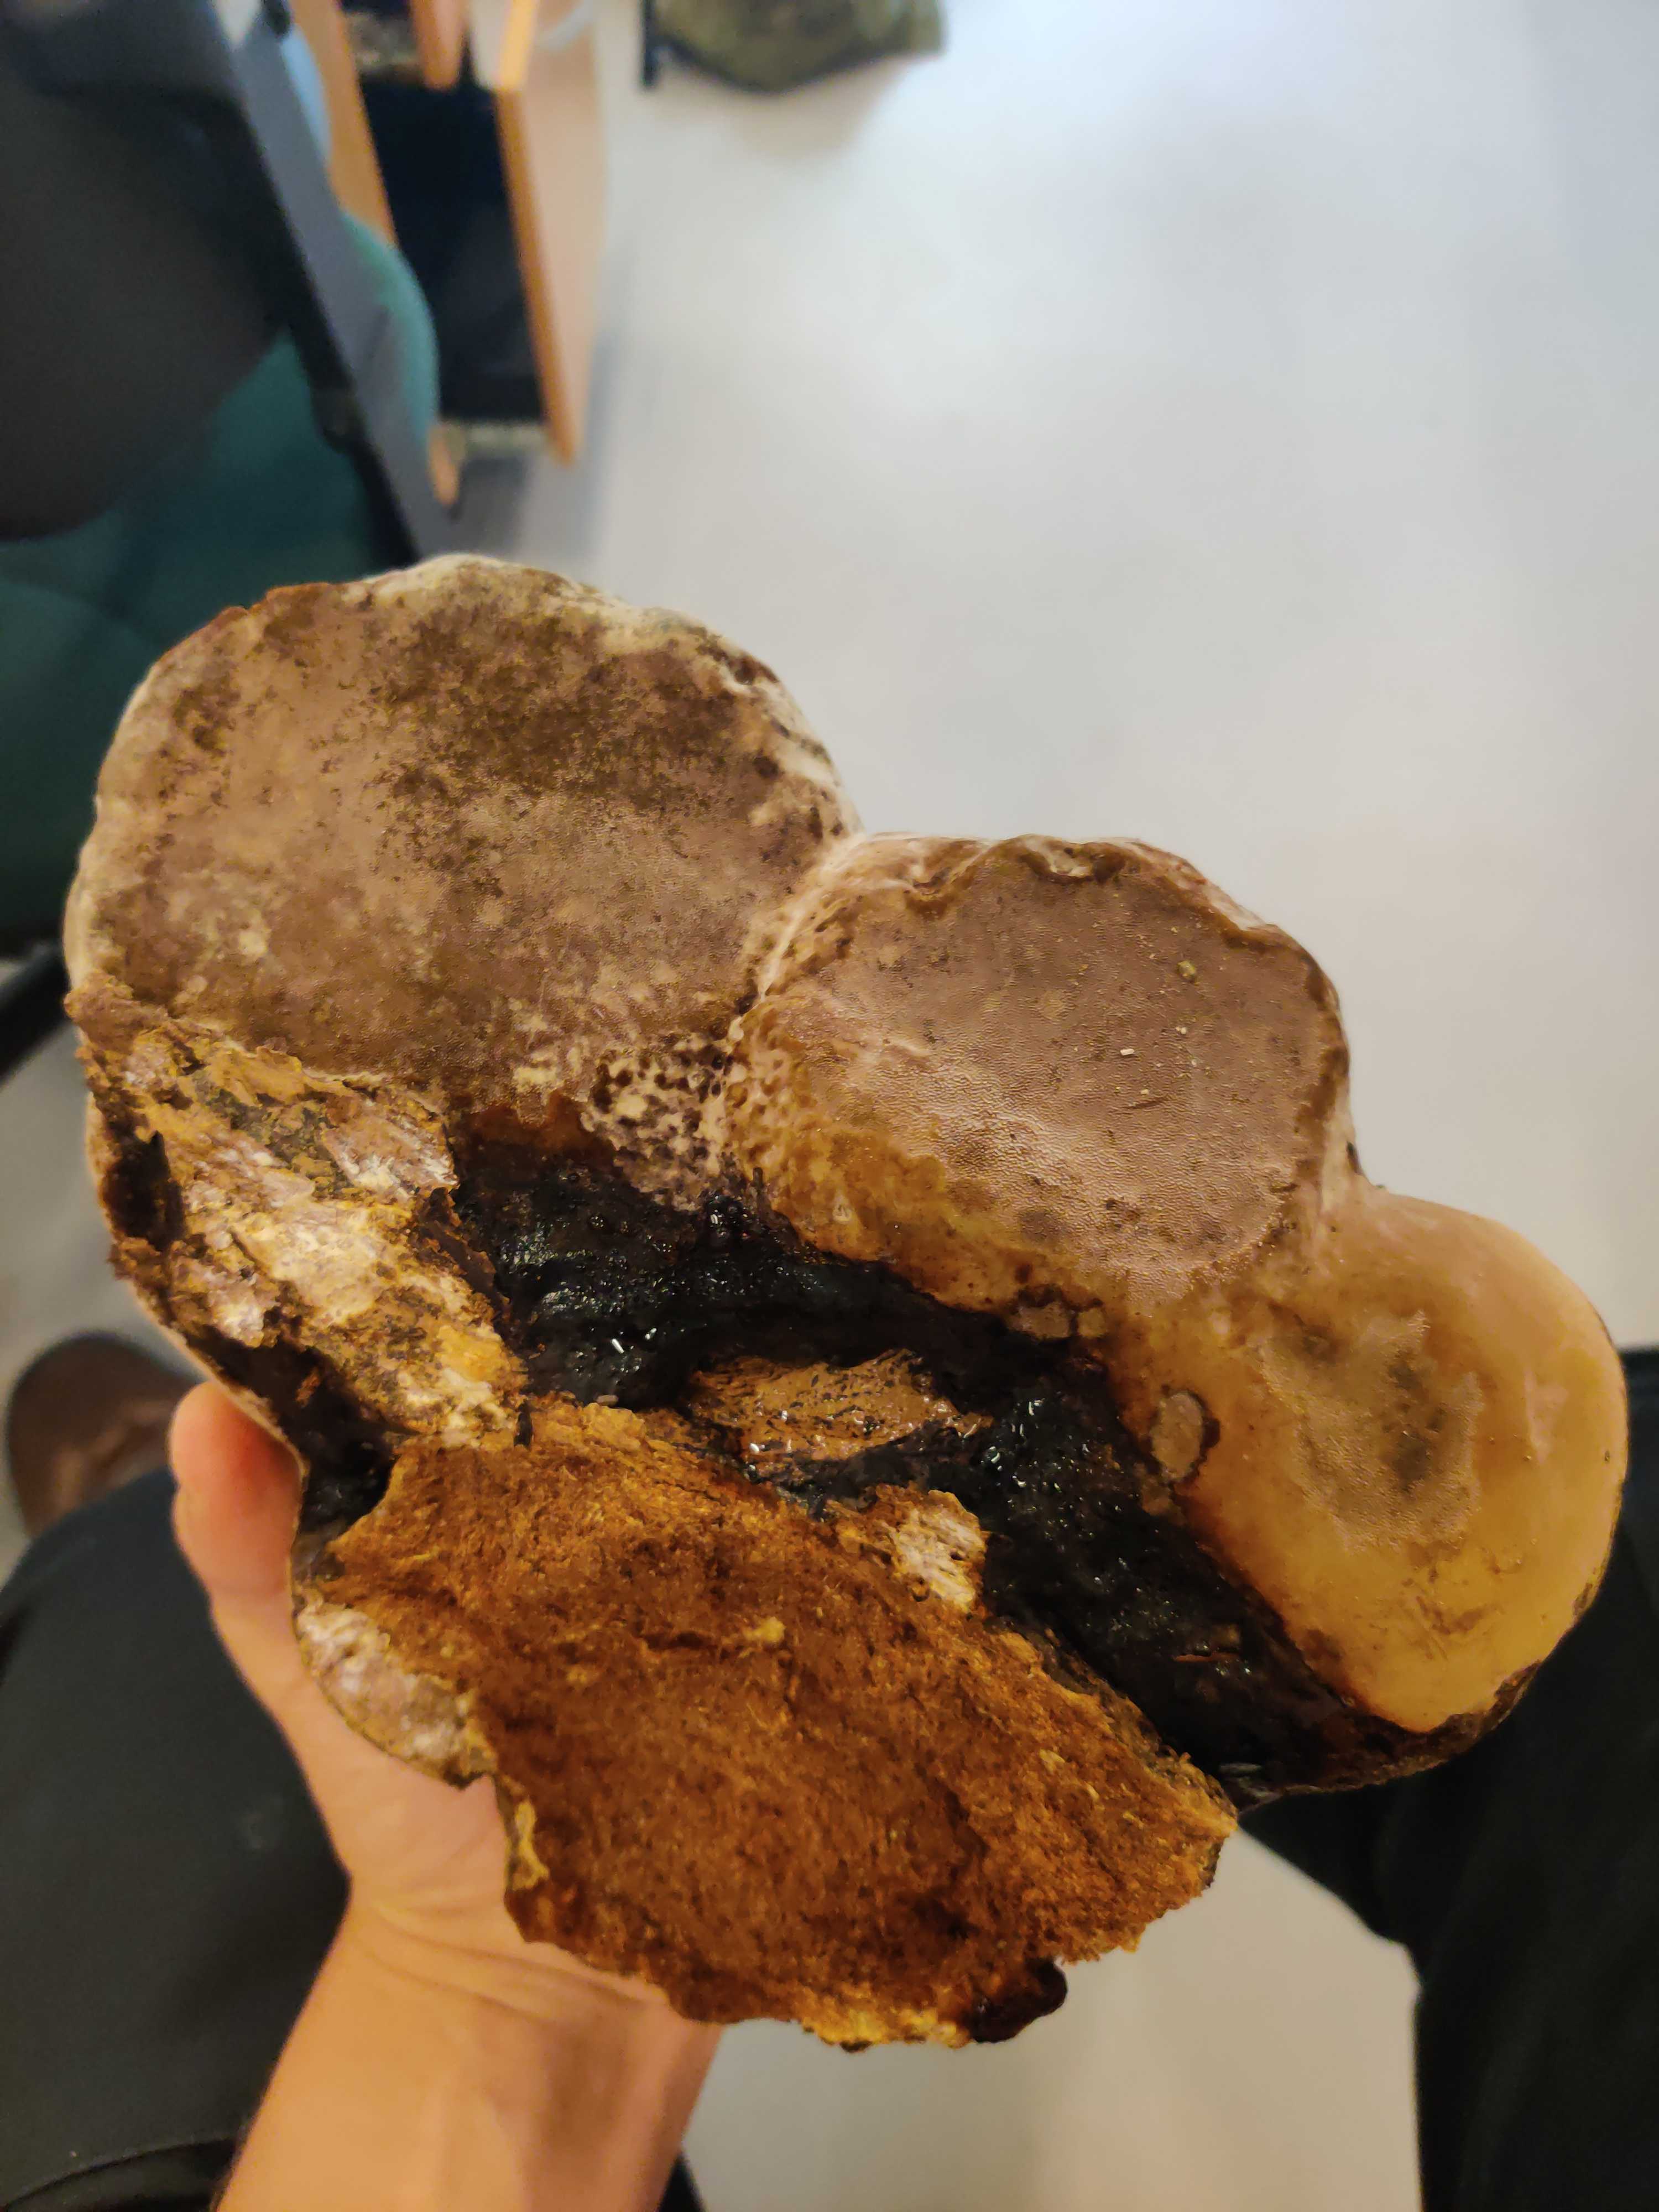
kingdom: Fungi
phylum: Basidiomycota
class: Agaricomycetes
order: Polyporales
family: Polyporaceae
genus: Fomes
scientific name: Fomes fomentarius
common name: tøndersvamp
